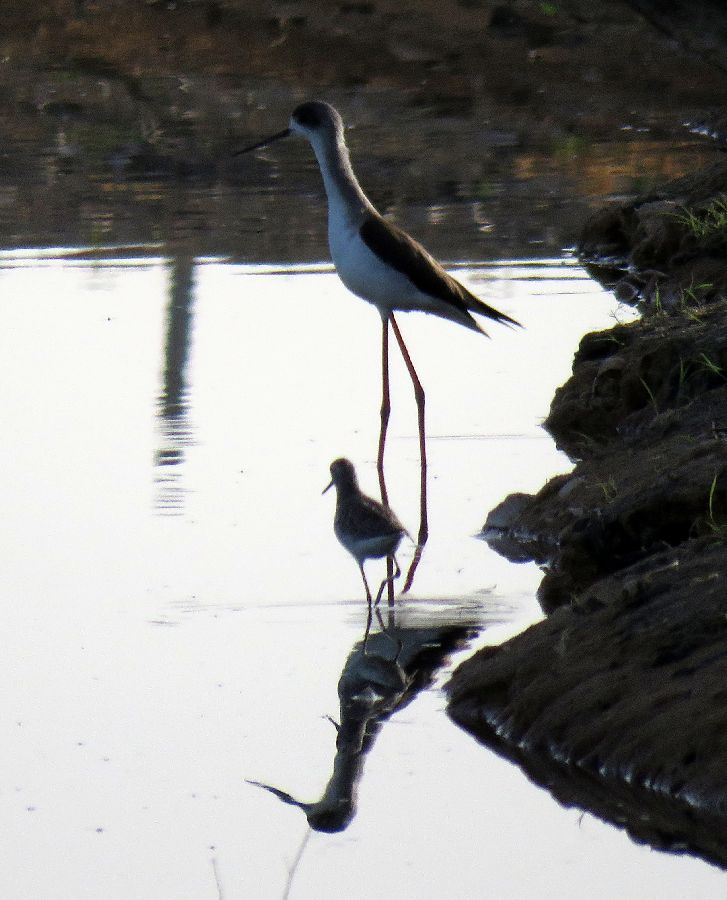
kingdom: Animalia
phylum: Chordata
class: Aves
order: Charadriiformes
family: Recurvirostridae
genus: Himantopus
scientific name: Himantopus himantopus
